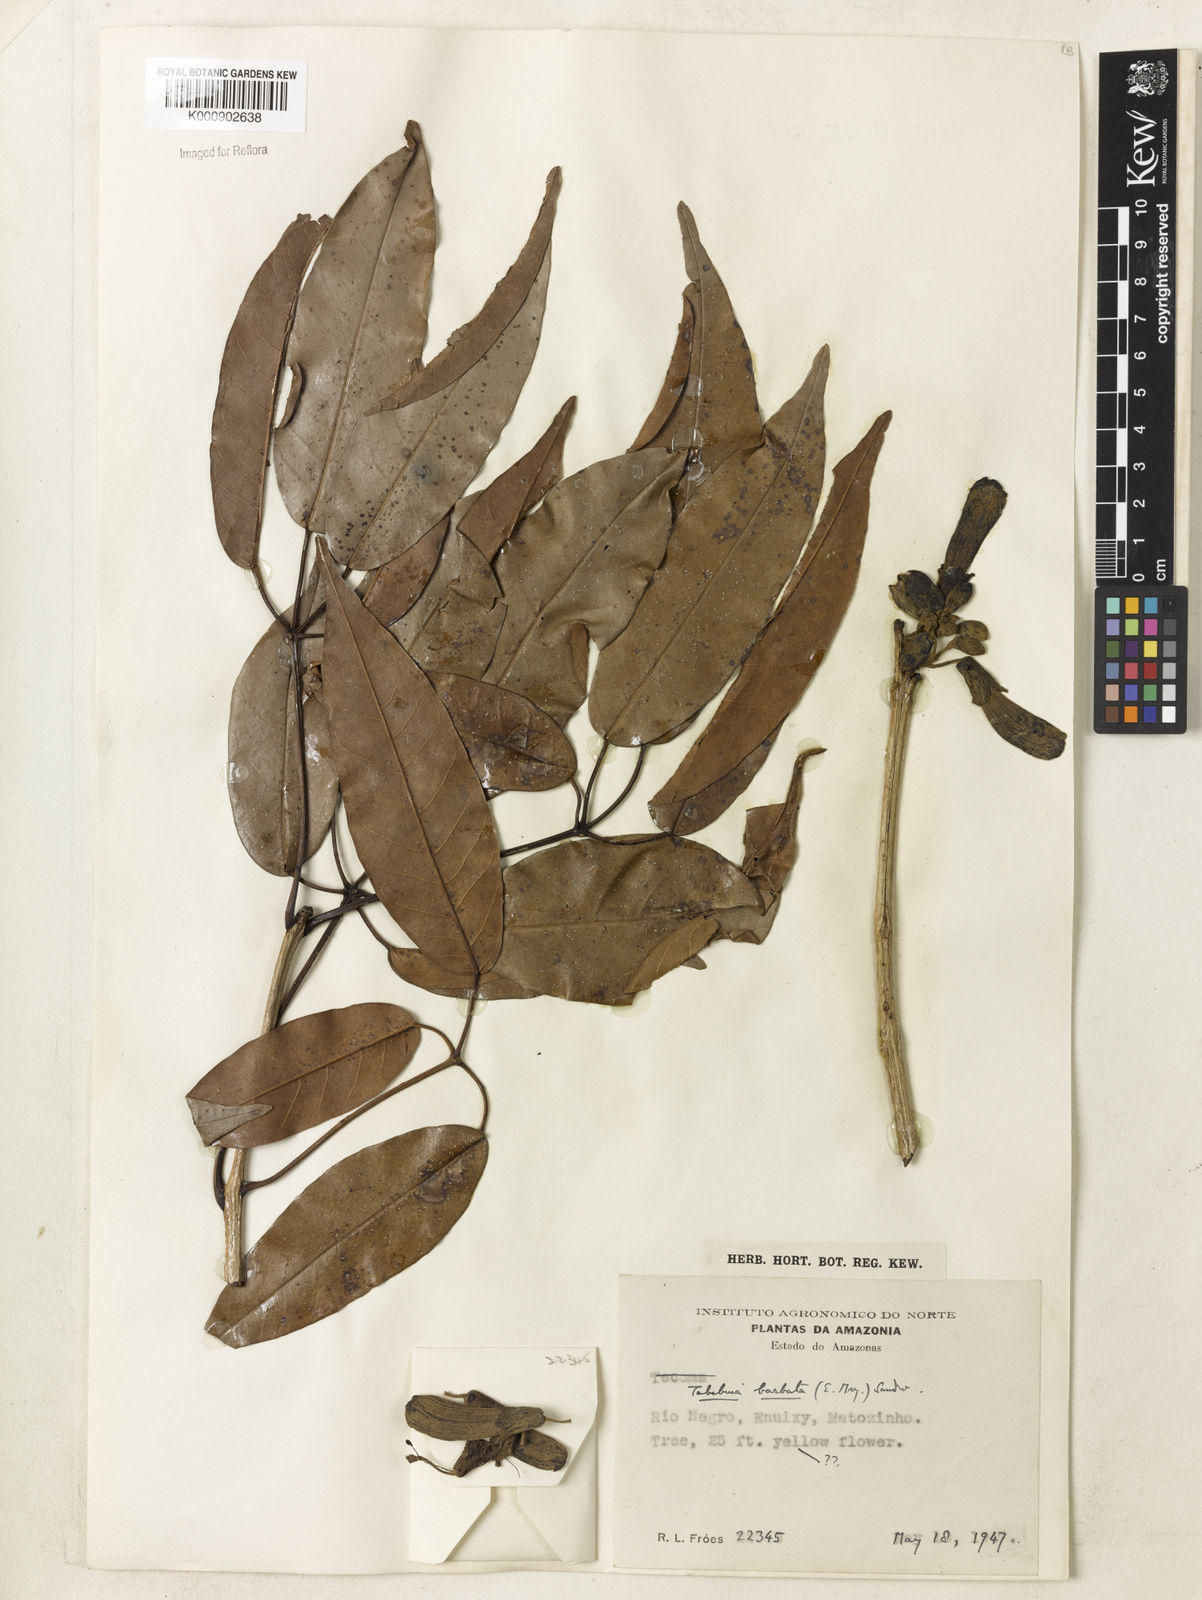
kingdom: Plantae
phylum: Tracheophyta
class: Magnoliopsida
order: Lamiales
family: Bignoniaceae
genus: Handroanthus
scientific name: Handroanthus barbatus
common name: Trumpet trees
